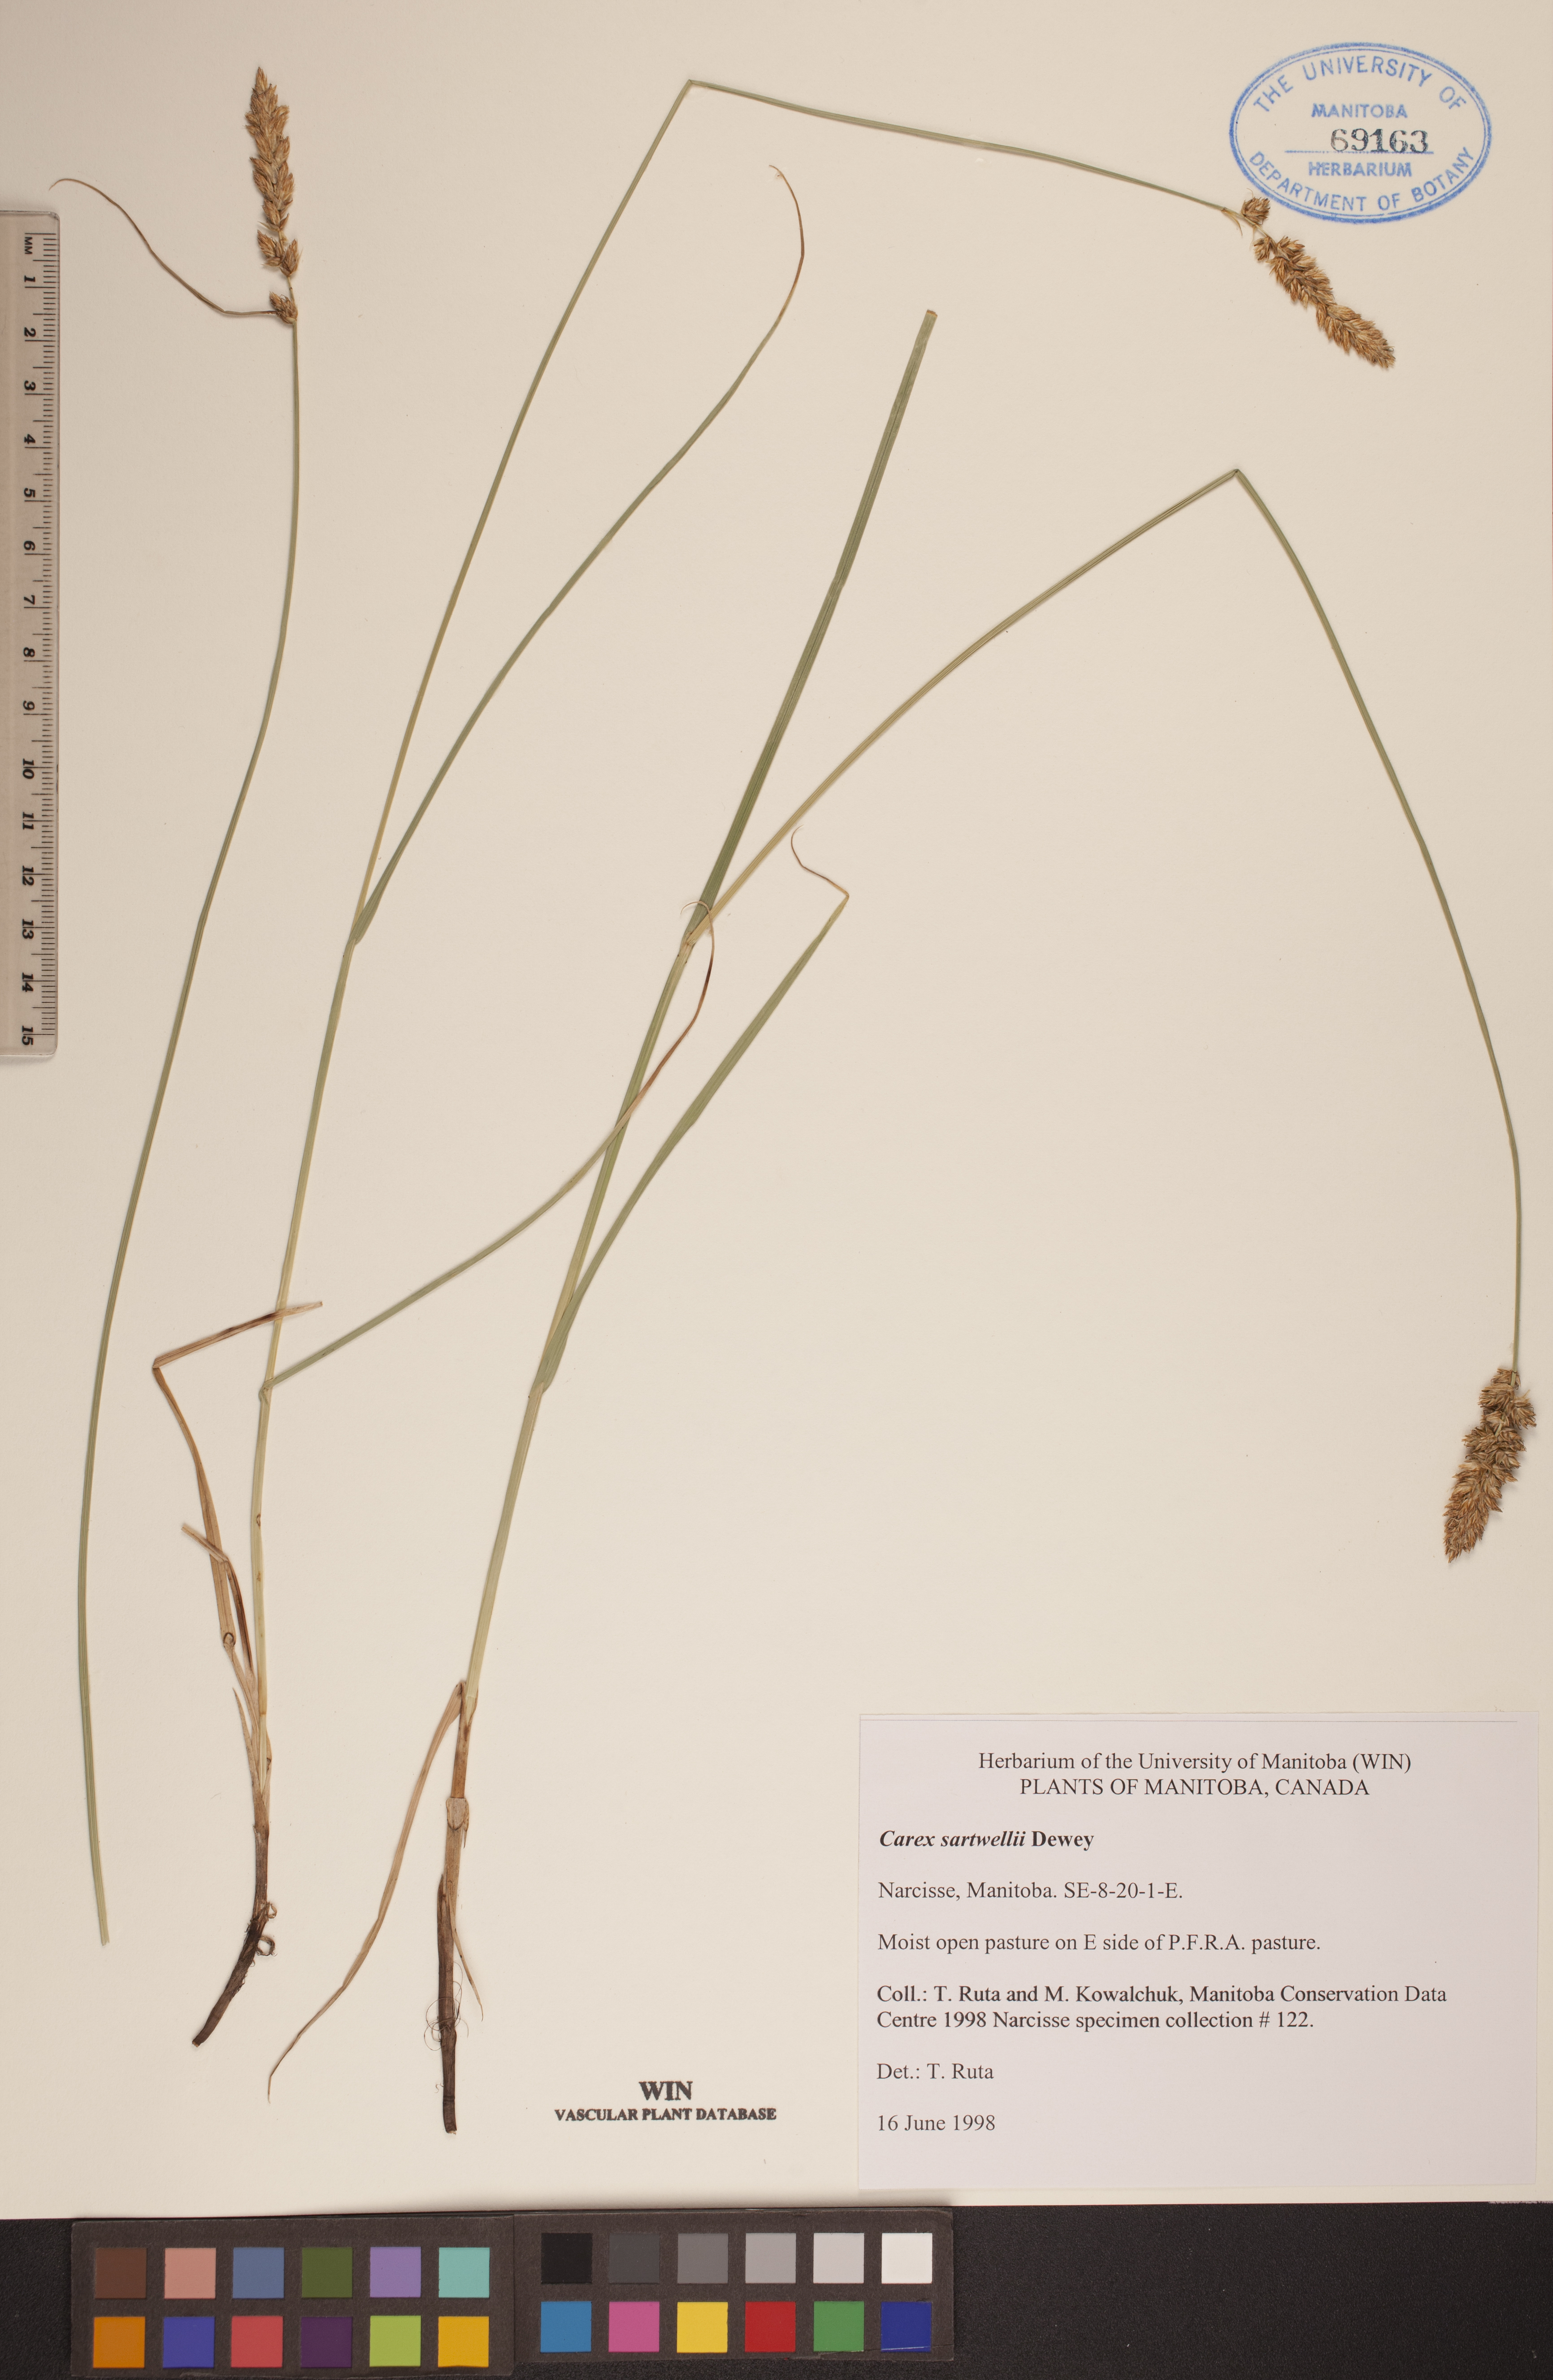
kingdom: Plantae
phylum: Tracheophyta
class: Liliopsida
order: Poales
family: Cyperaceae
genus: Carex
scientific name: Carex sartwellii
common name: Sartwell's sedge
